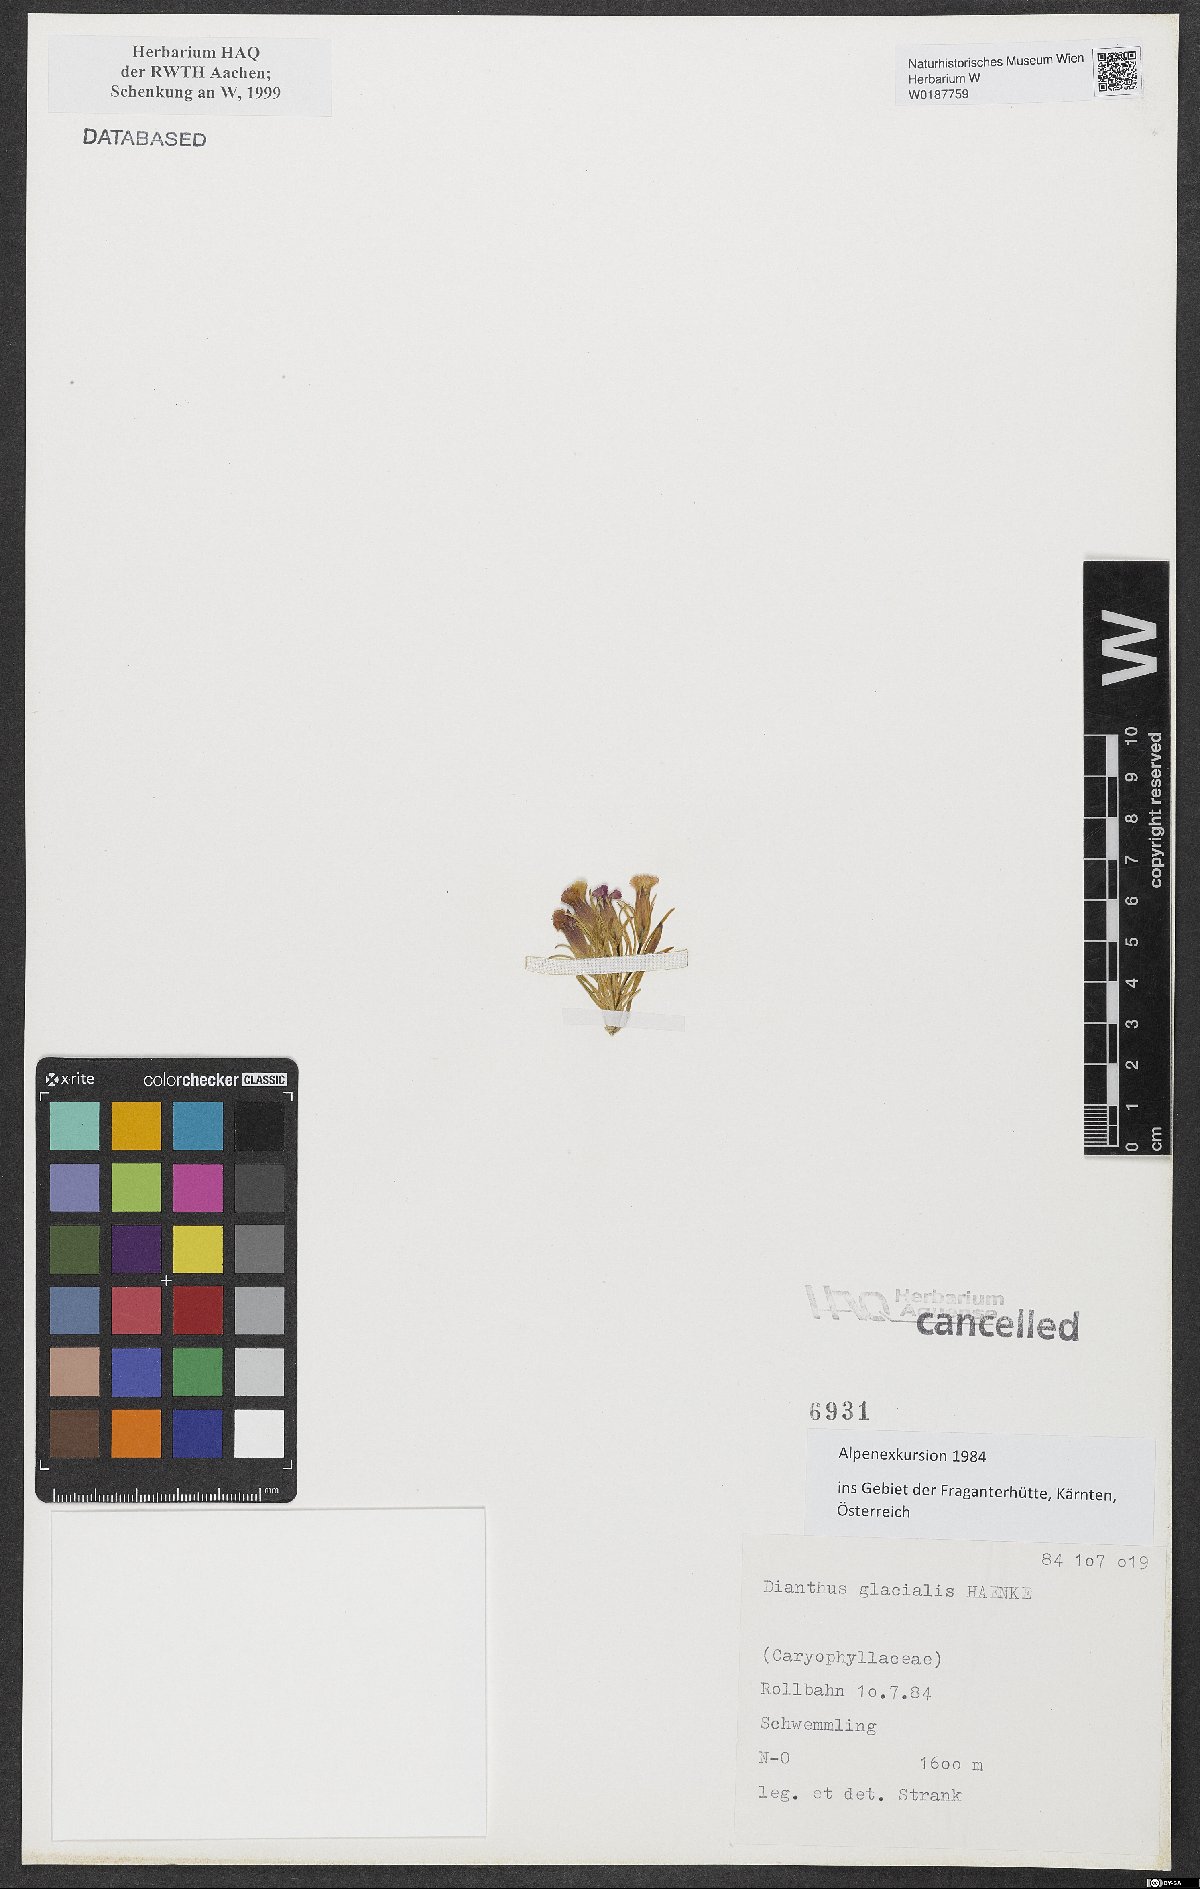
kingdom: Plantae
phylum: Tracheophyta
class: Magnoliopsida
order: Caryophyllales
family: Caryophyllaceae
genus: Dianthus
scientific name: Dianthus glacialis
